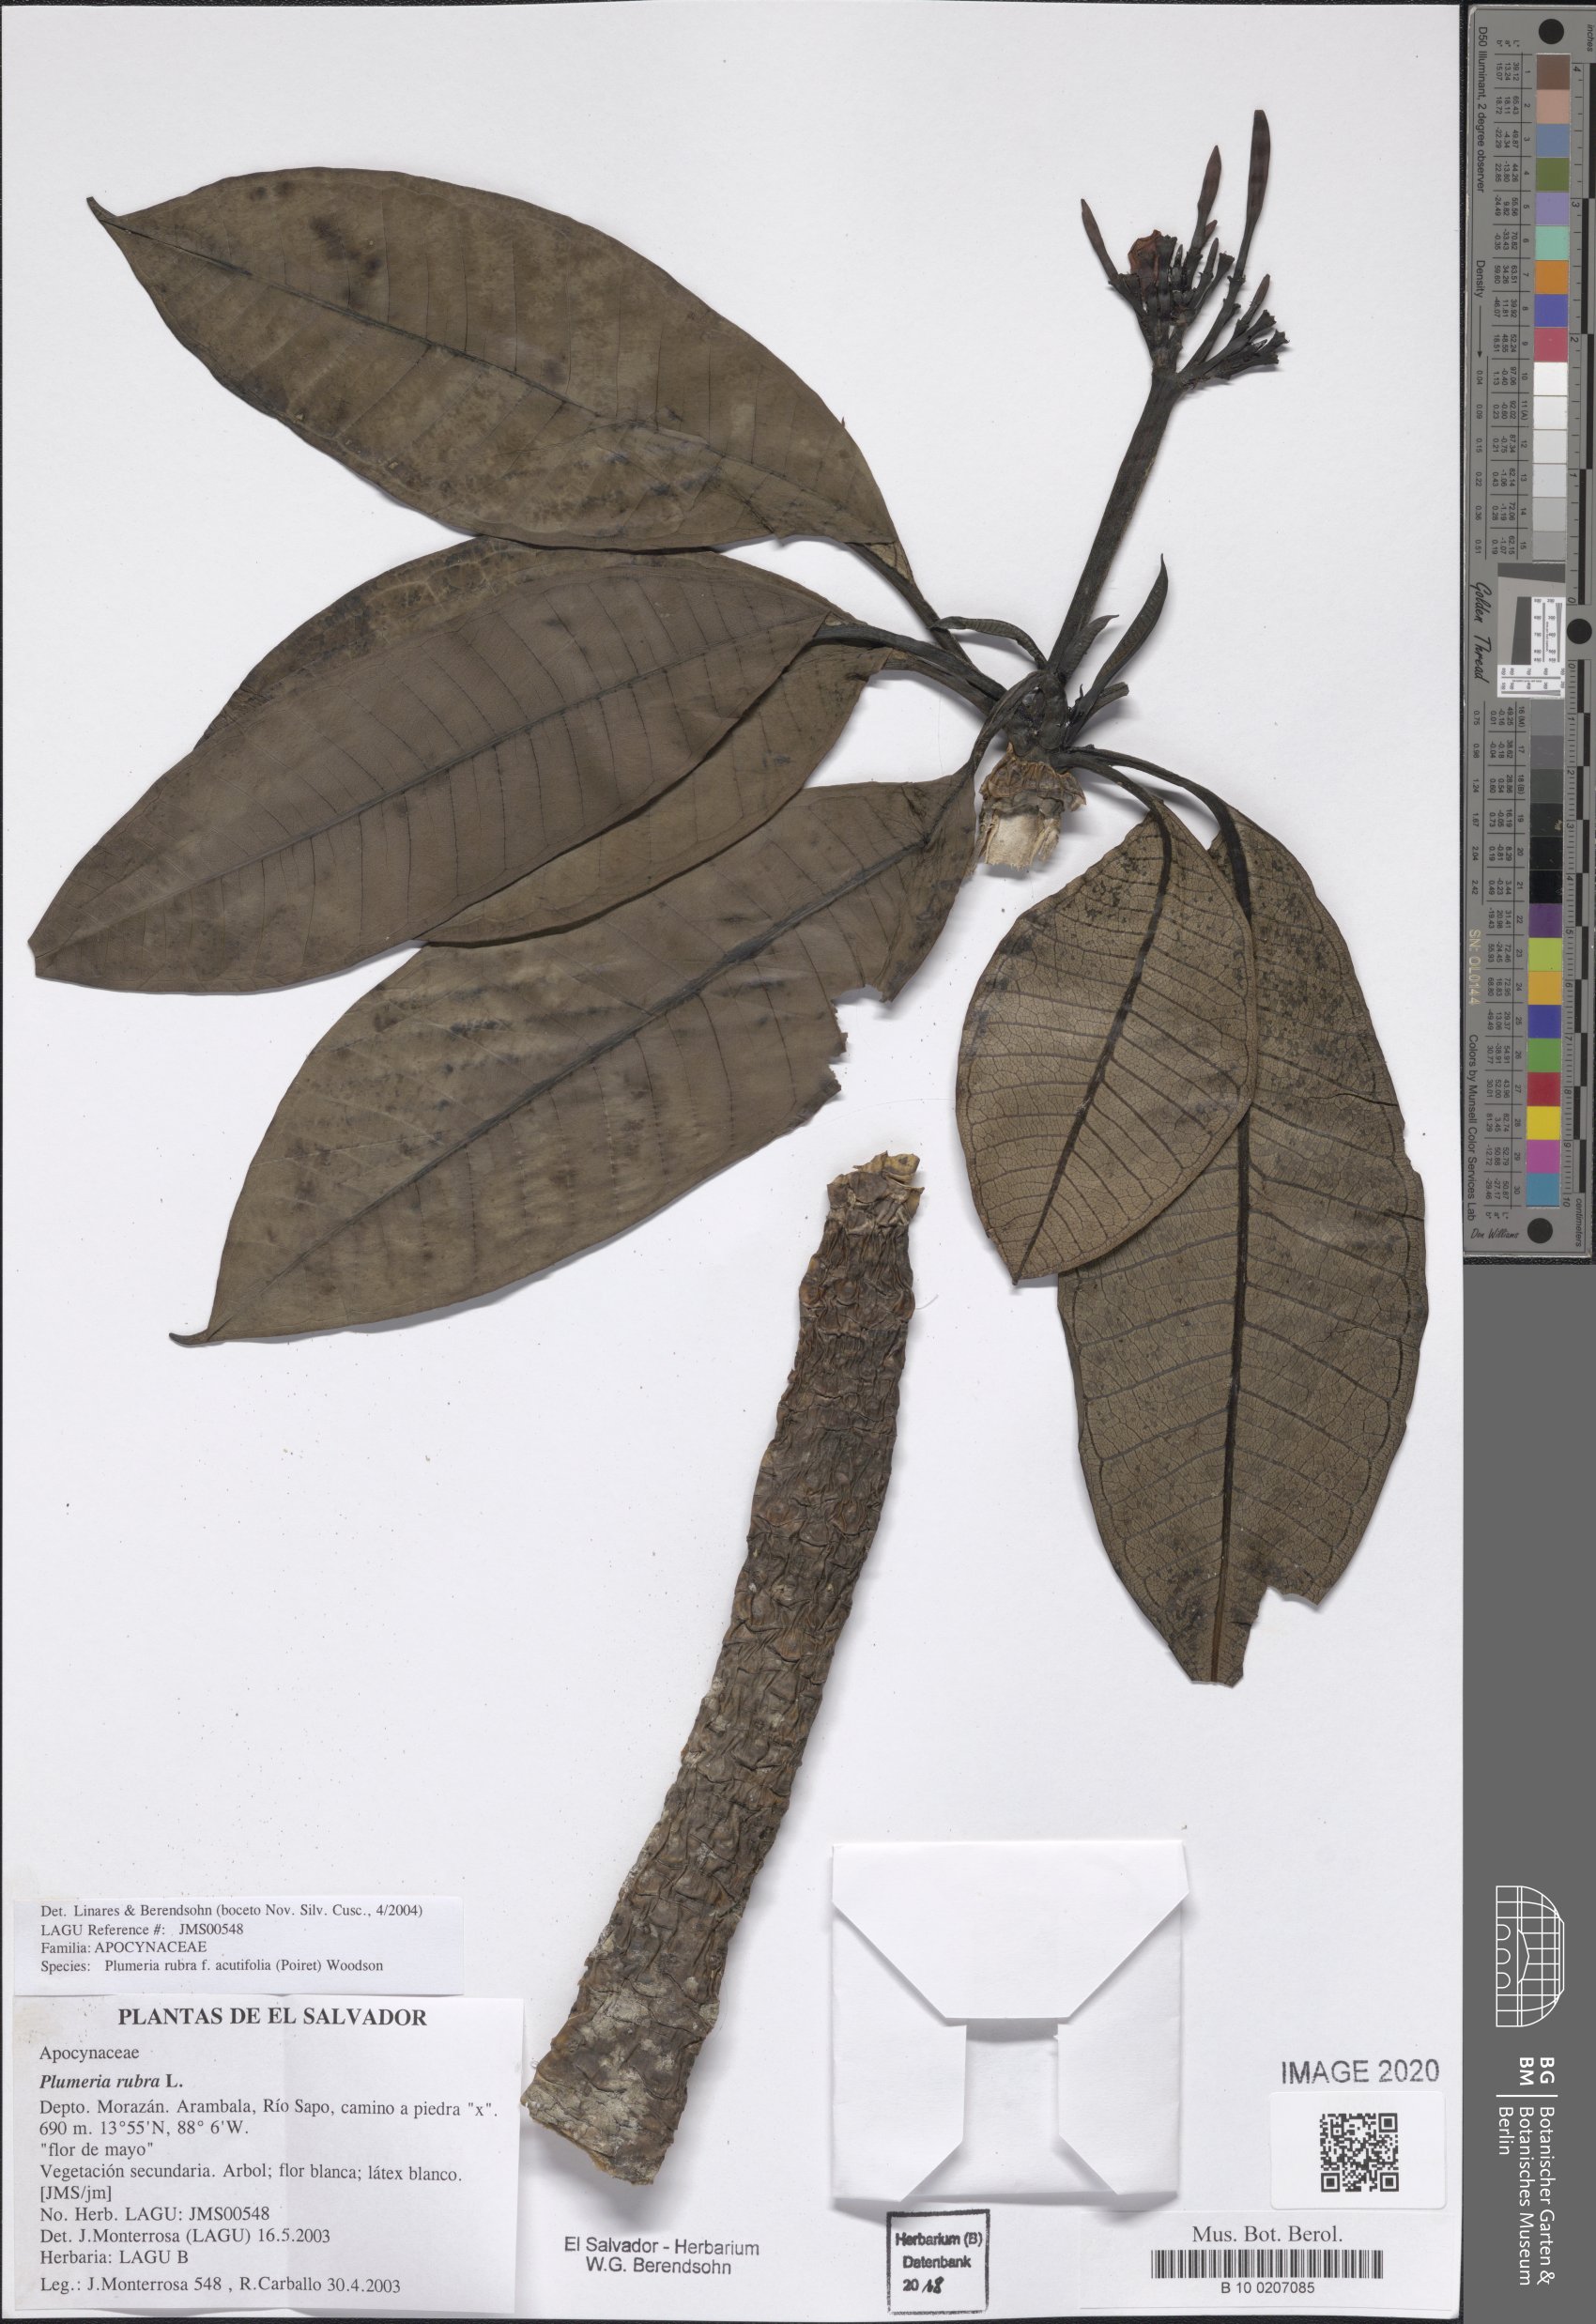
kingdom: Plantae
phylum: Tracheophyta
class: Magnoliopsida
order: Gentianales
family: Apocynaceae
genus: Plumeria
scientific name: Plumeria rubra
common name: Pagoda-tree
